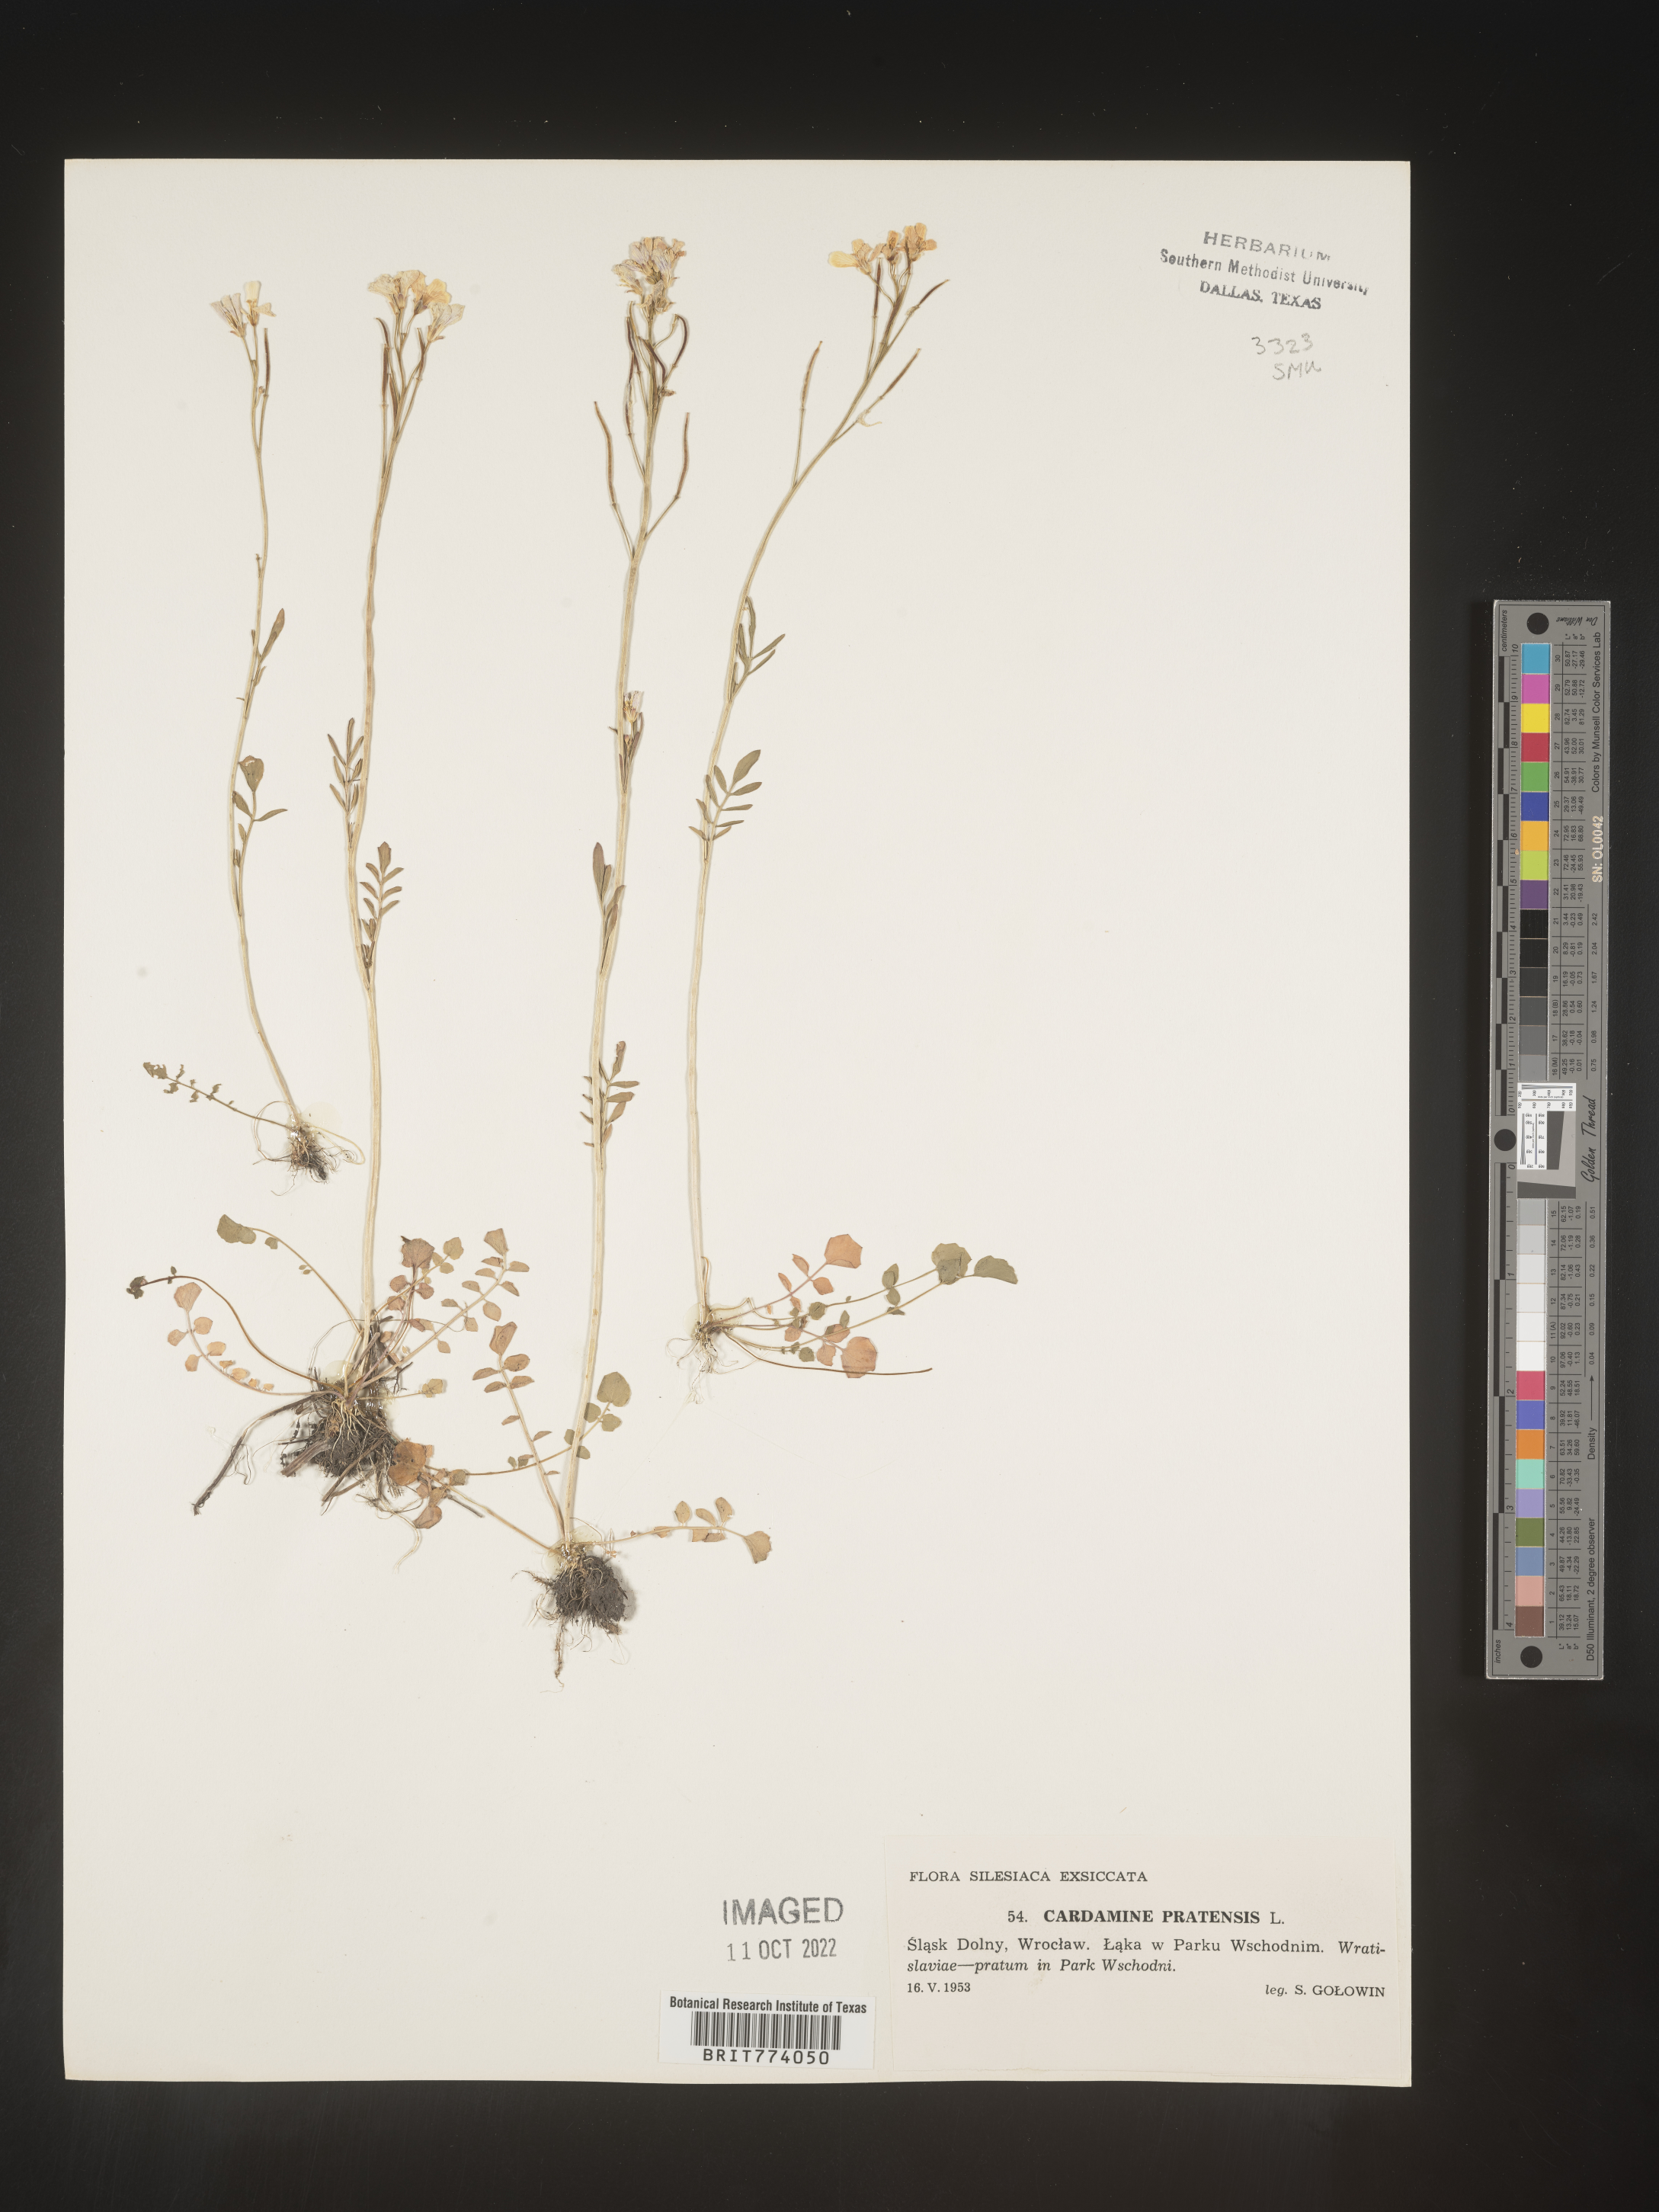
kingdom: Plantae
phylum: Tracheophyta
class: Magnoliopsida
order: Brassicales
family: Brassicaceae
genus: Cardamine
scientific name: Cardamine pratensis
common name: Cuckoo flower
